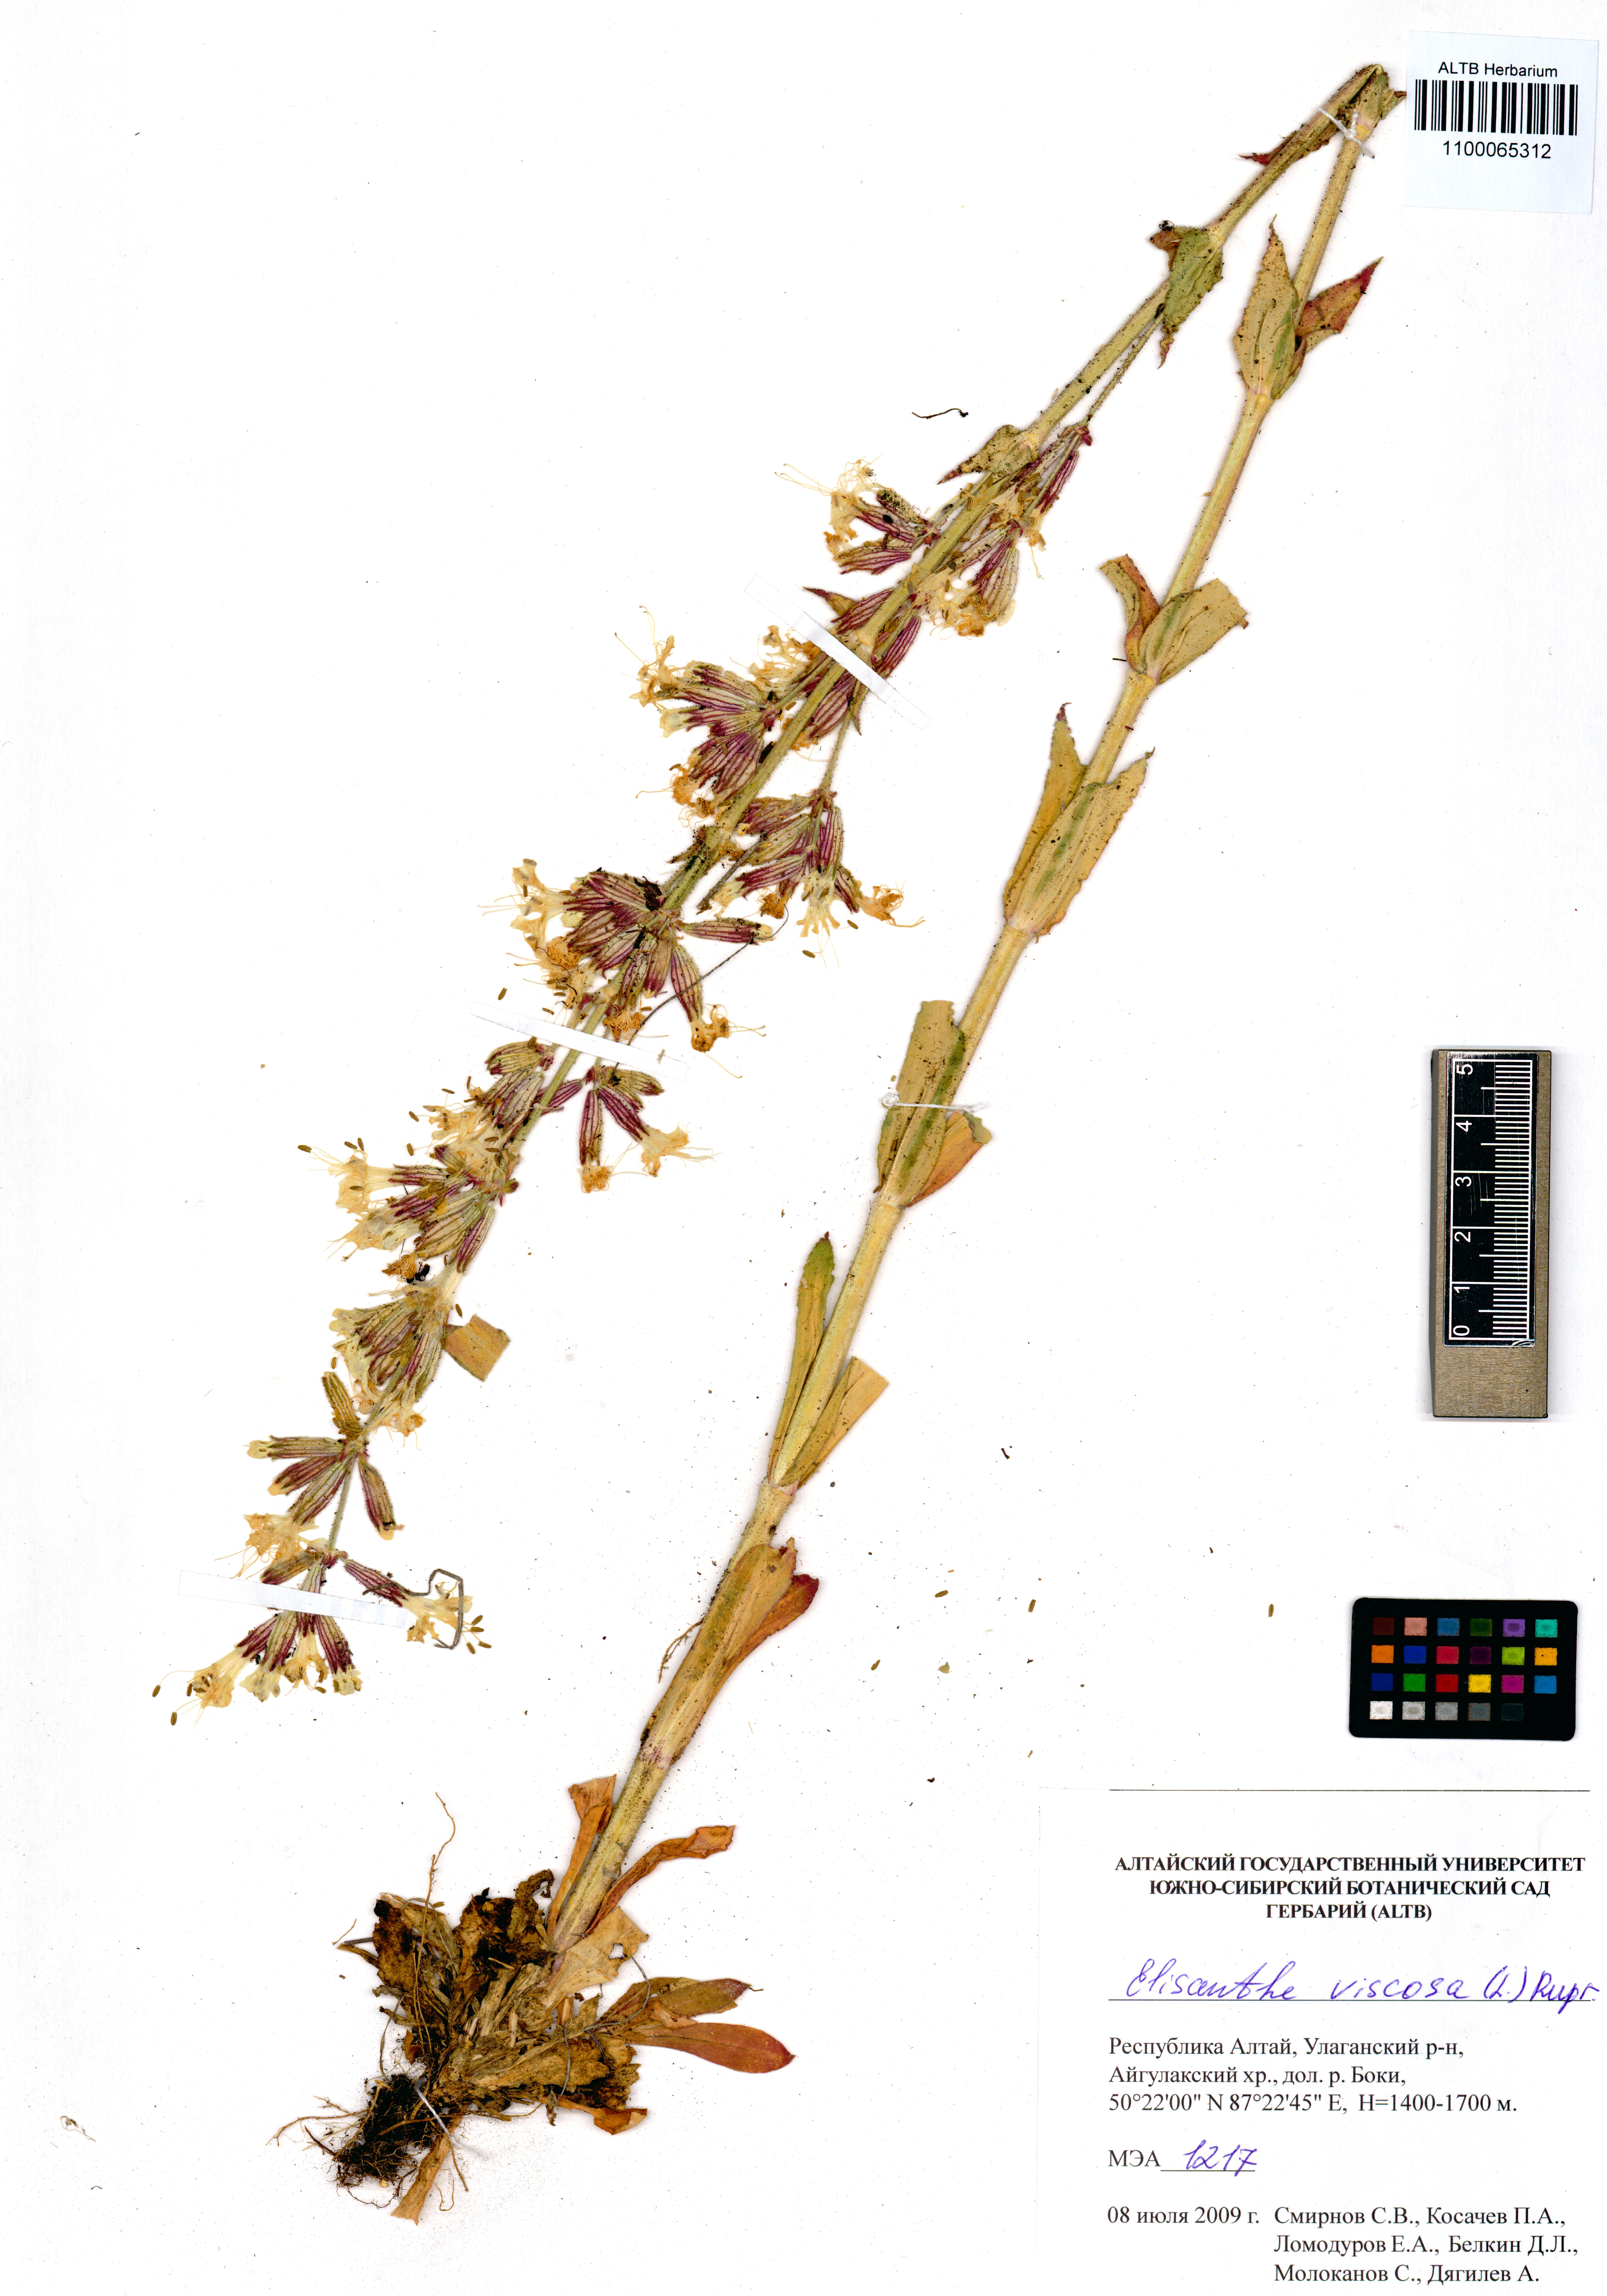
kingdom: Plantae
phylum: Tracheophyta
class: Magnoliopsida
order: Caryophyllales
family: Caryophyllaceae
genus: Silene
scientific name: Silene viscosa
